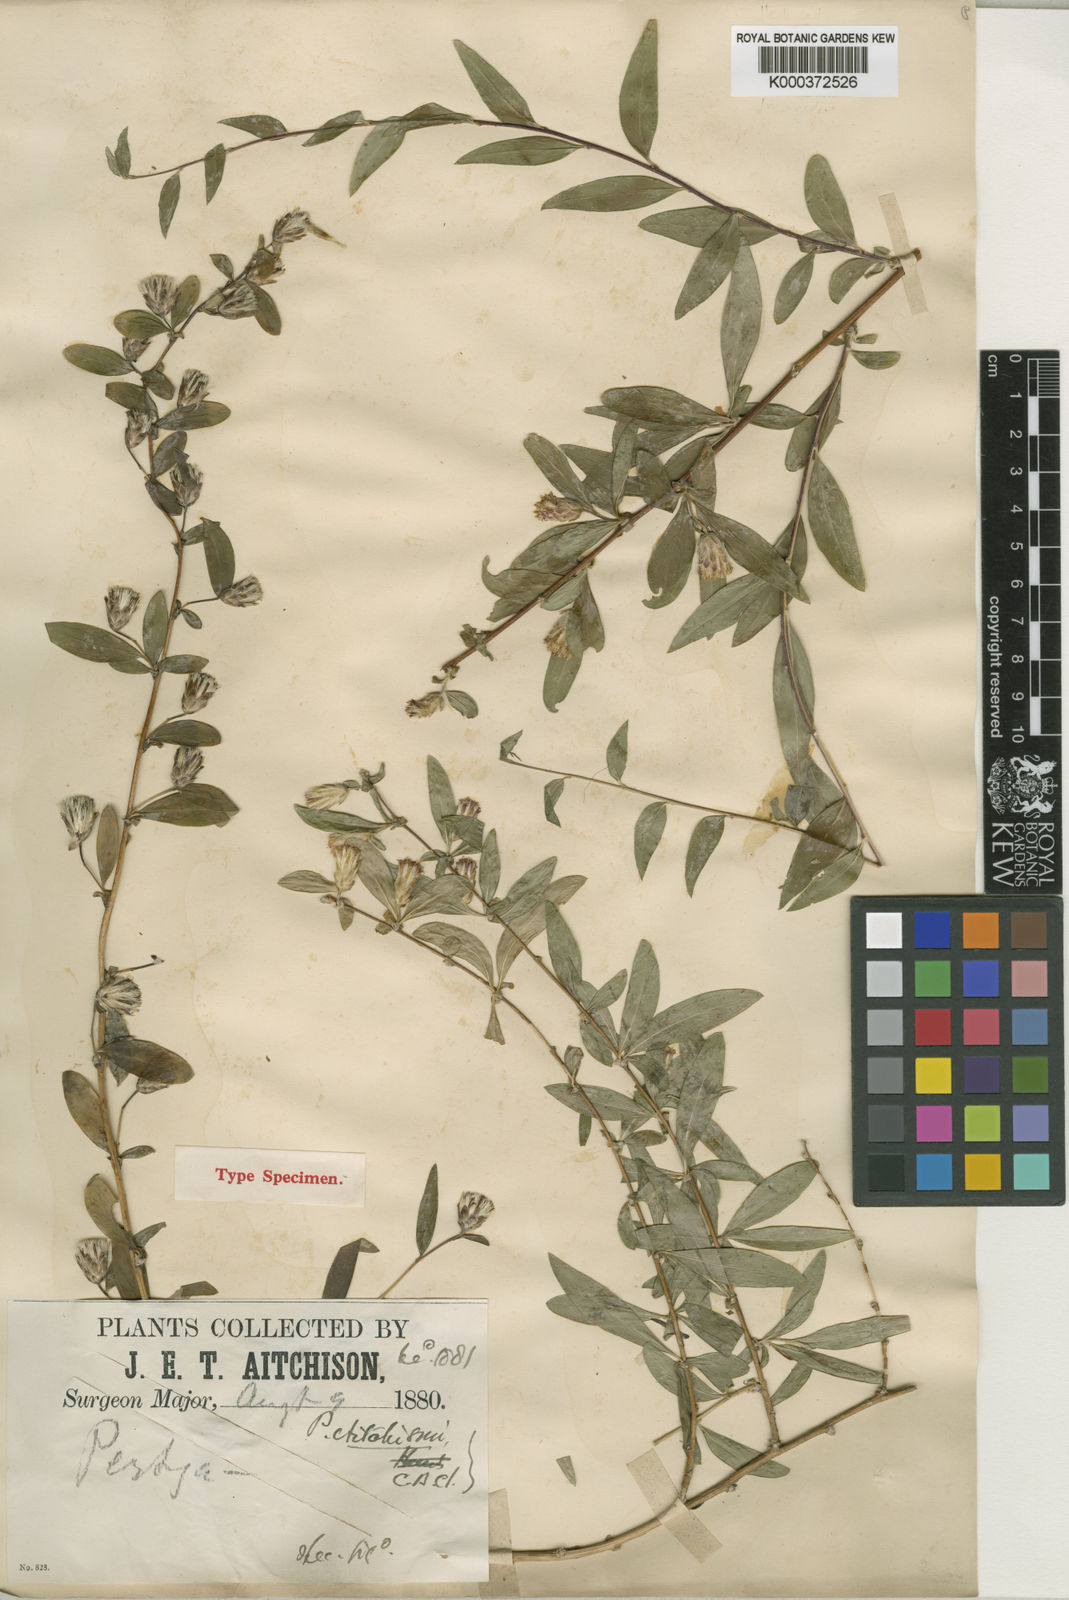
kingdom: Plantae
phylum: Tracheophyta
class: Magnoliopsida
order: Asterales
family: Asteraceae
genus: Pertya
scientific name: Pertya aitchisonii
